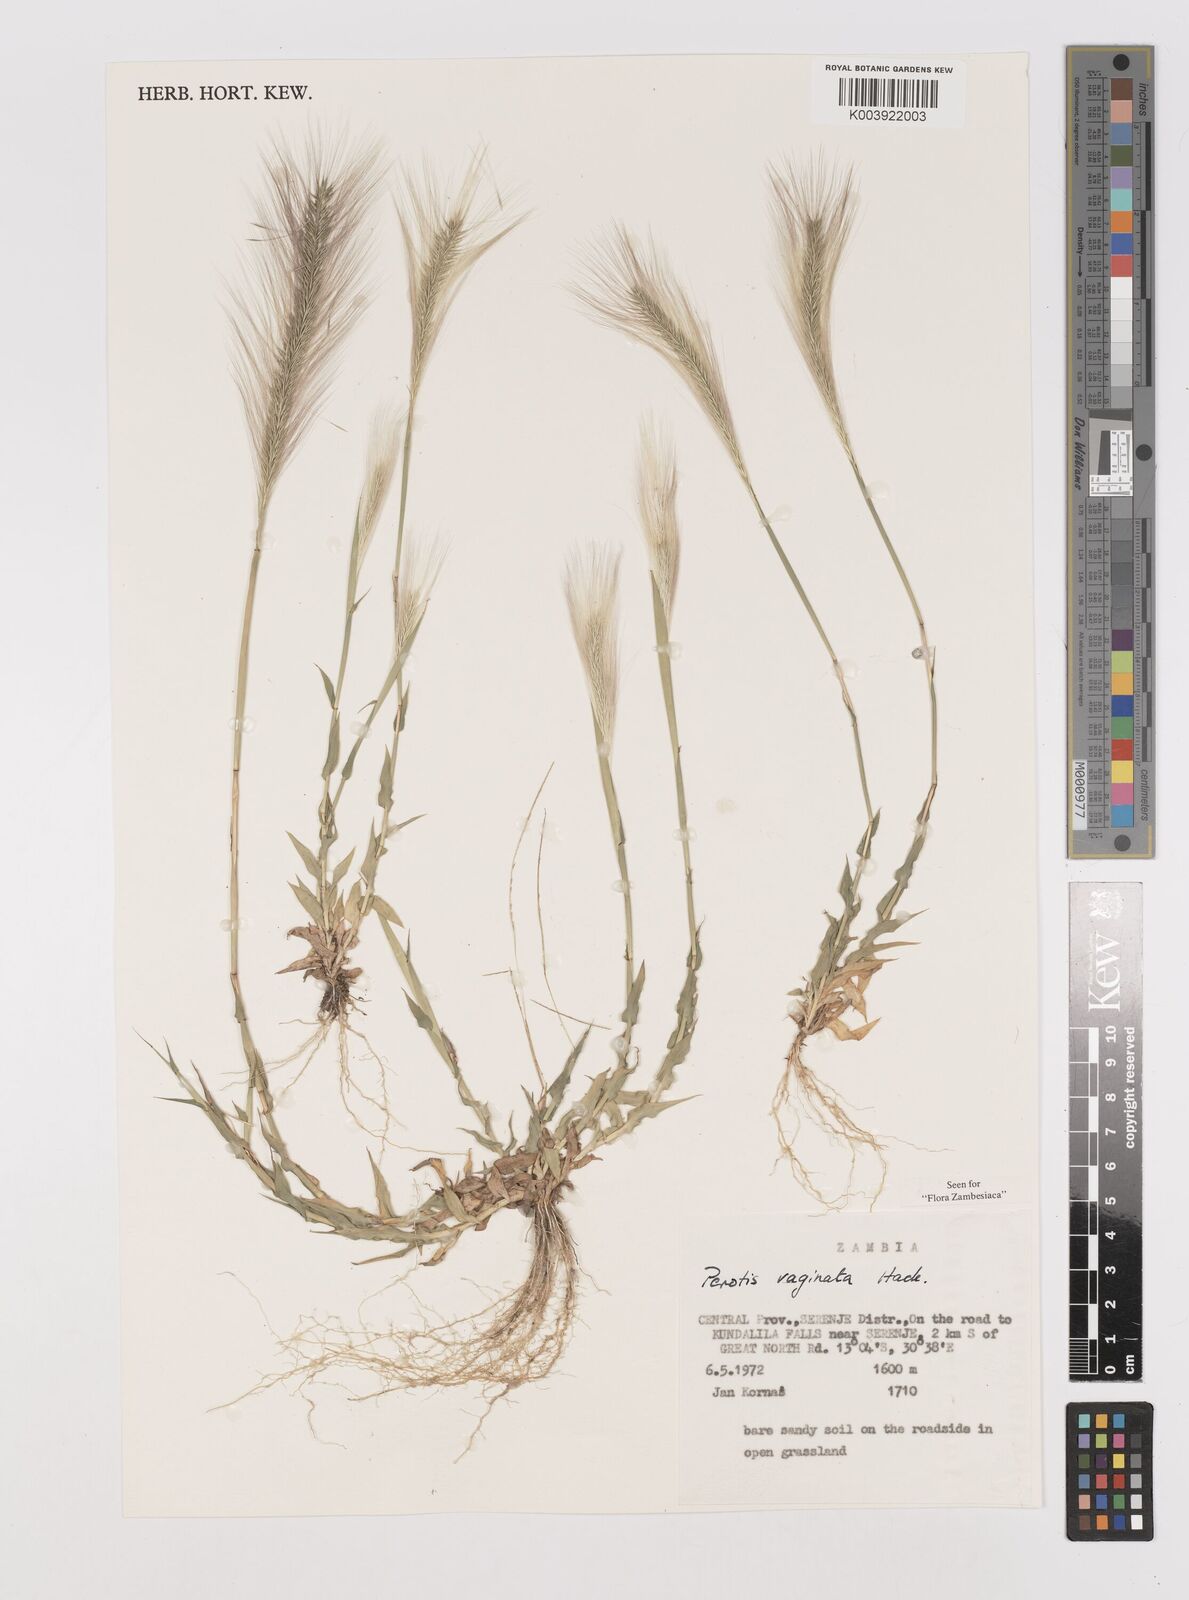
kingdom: Plantae
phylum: Tracheophyta
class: Liliopsida
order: Poales
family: Poaceae
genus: Perotis
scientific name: Perotis vaginata
